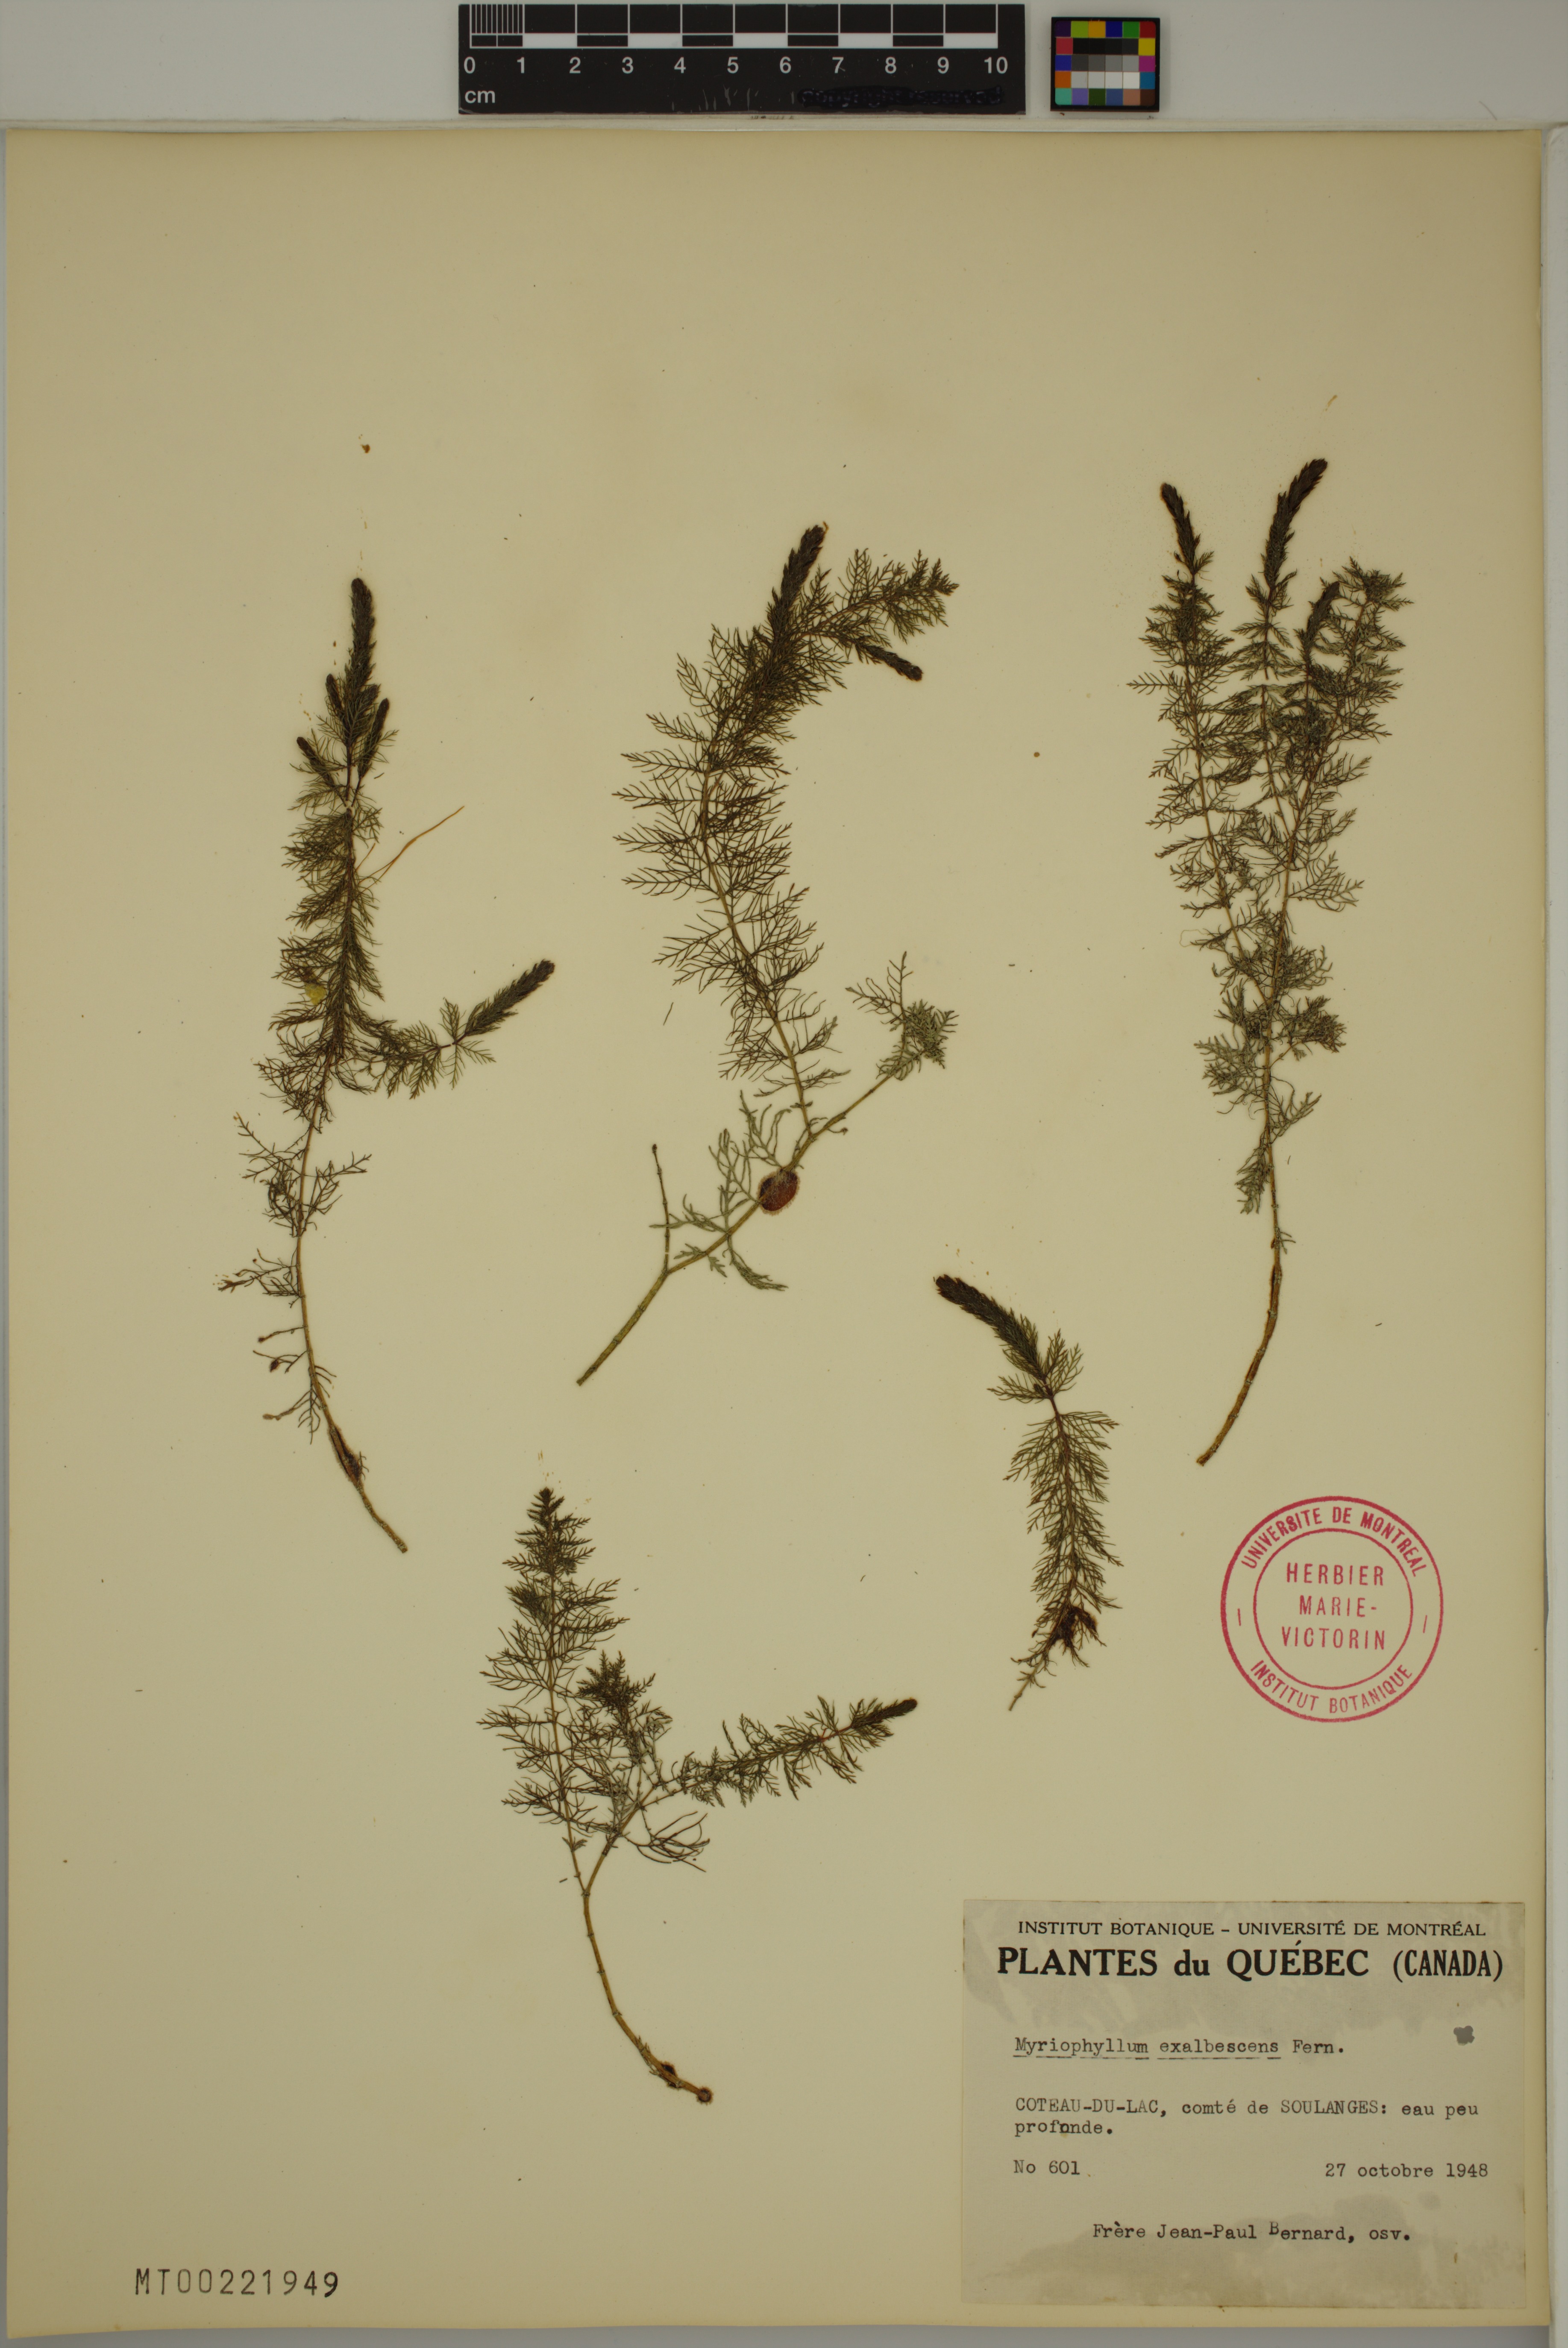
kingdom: Plantae
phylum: Tracheophyta
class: Magnoliopsida
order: Saxifragales
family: Haloragaceae
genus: Myriophyllum
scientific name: Myriophyllum sibiricum
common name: Siberian water-milfoil
